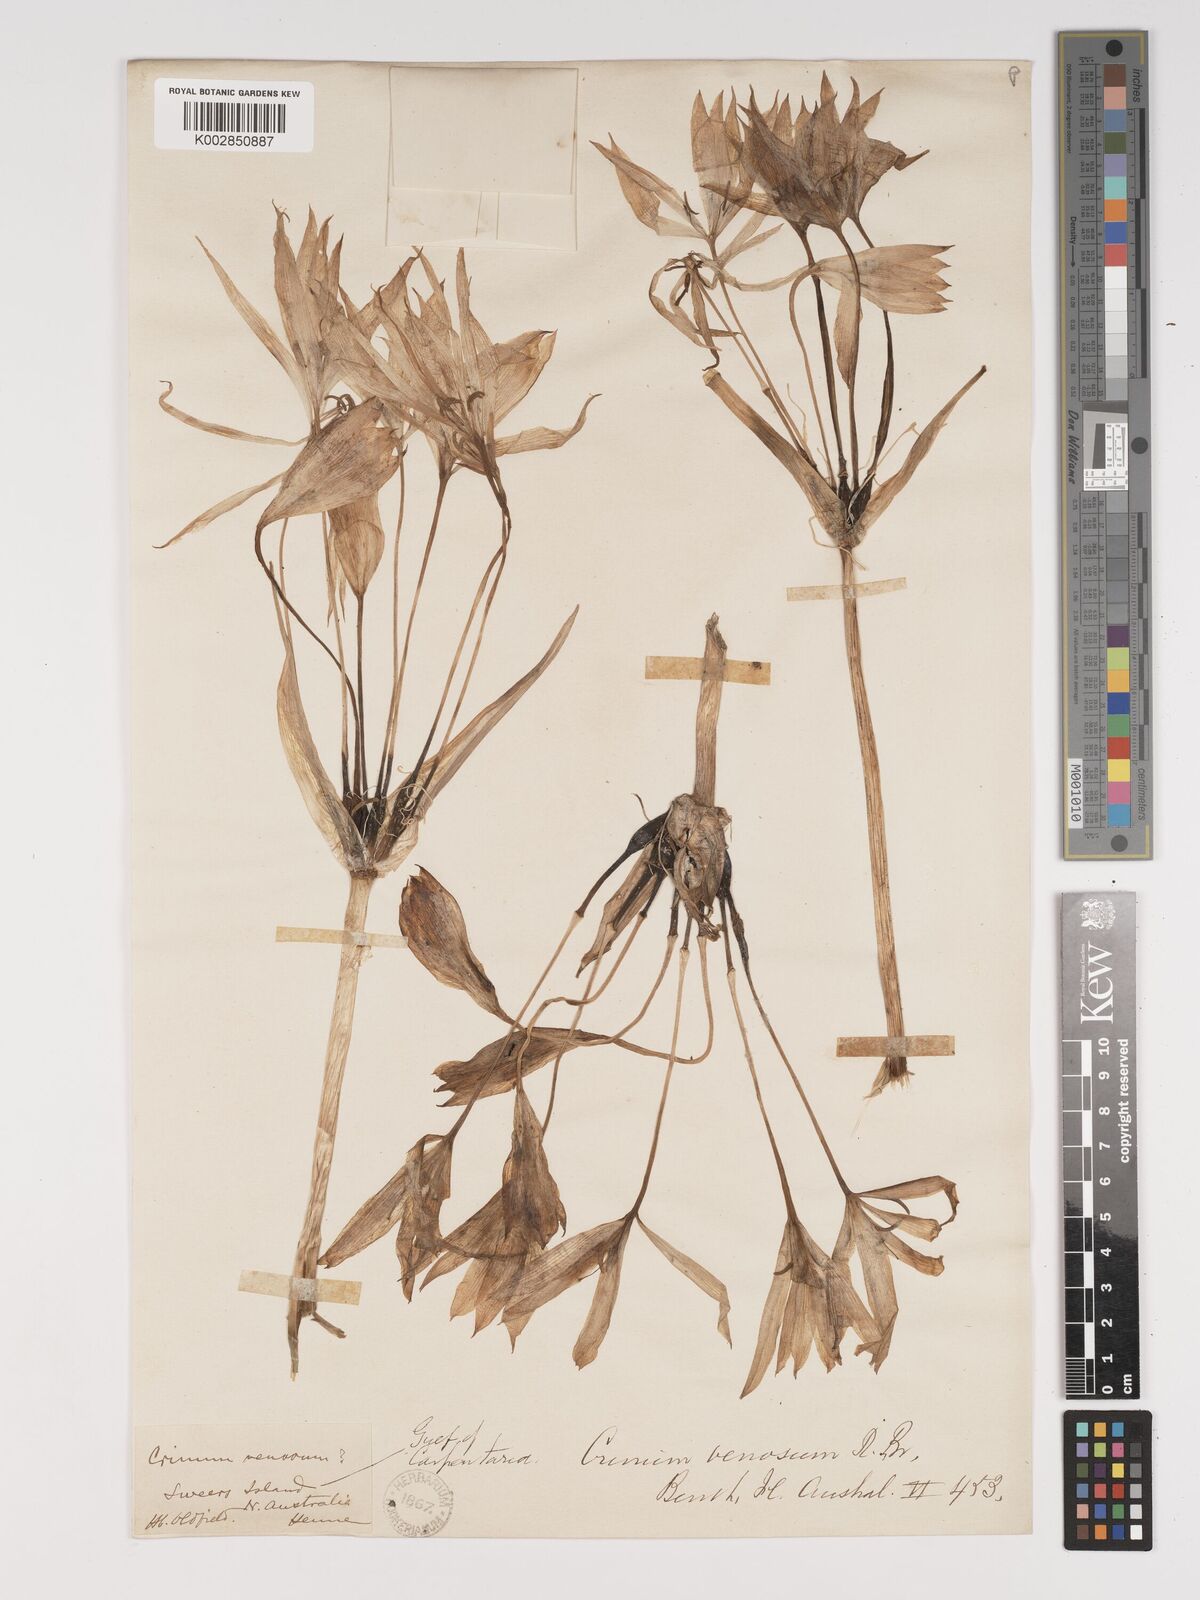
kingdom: Plantae
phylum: Tracheophyta
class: Liliopsida
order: Asparagales
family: Amaryllidaceae
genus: Crinum
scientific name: Crinum venosum
